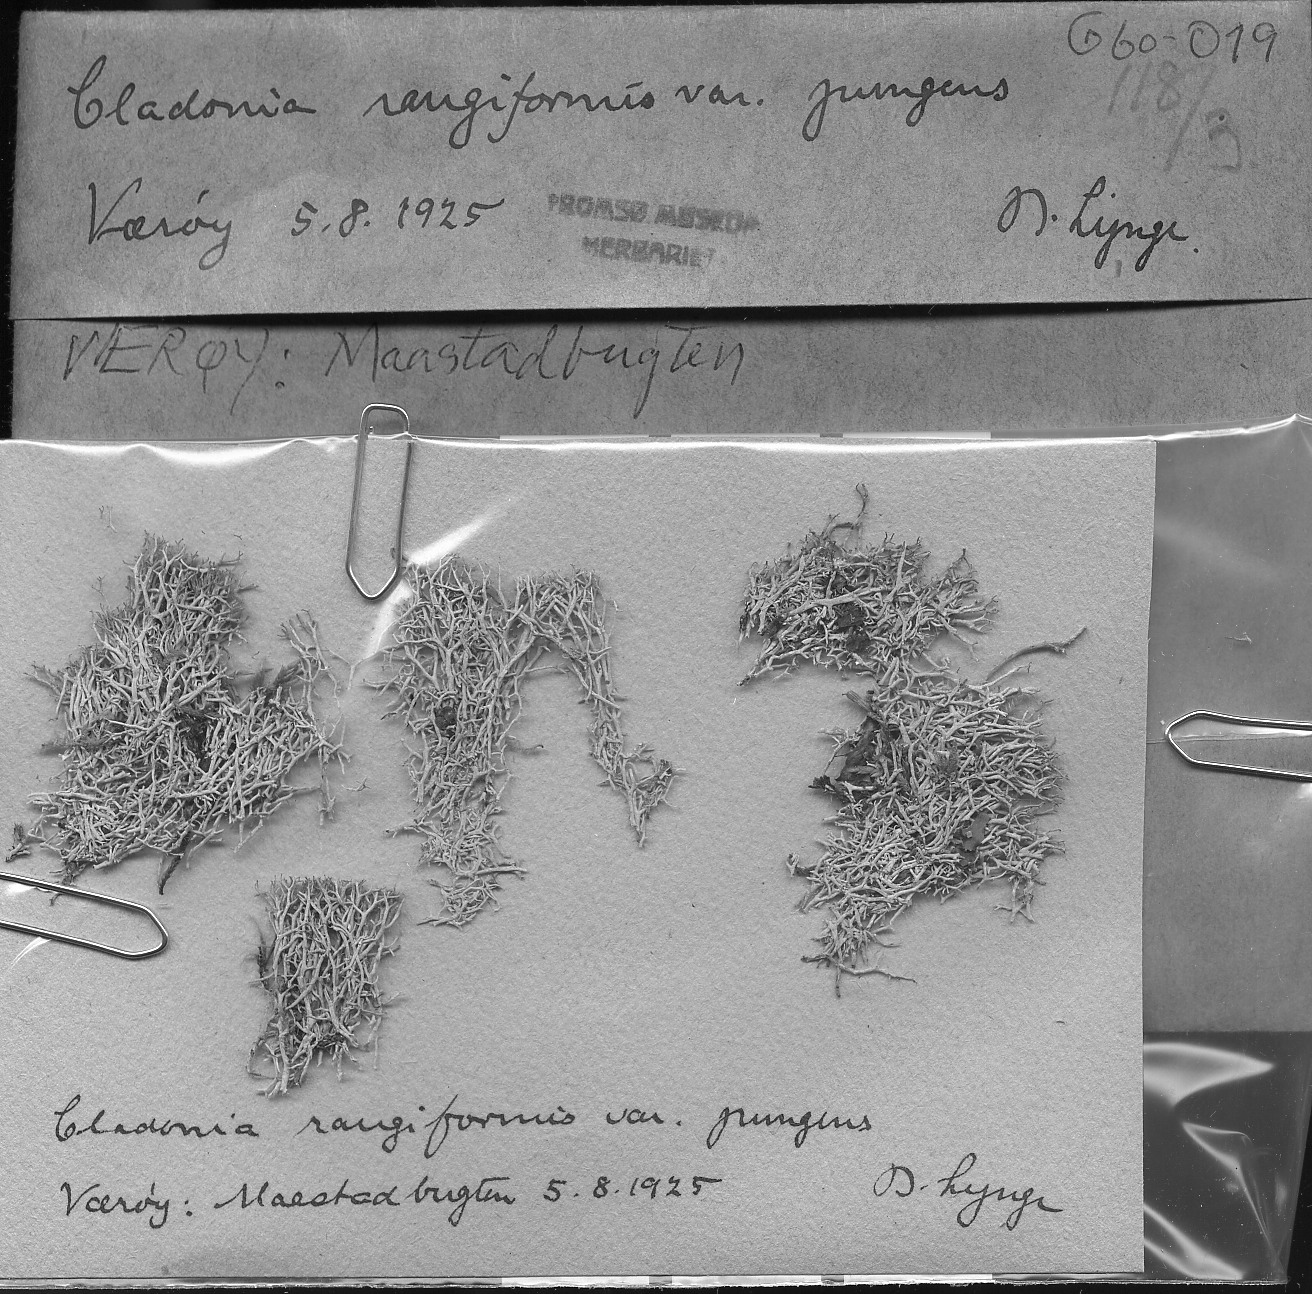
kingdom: Fungi
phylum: Ascomycota
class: Lecanoromycetes
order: Lecanorales
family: Cladoniaceae
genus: Cladonia
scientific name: Cladonia rangiformis
